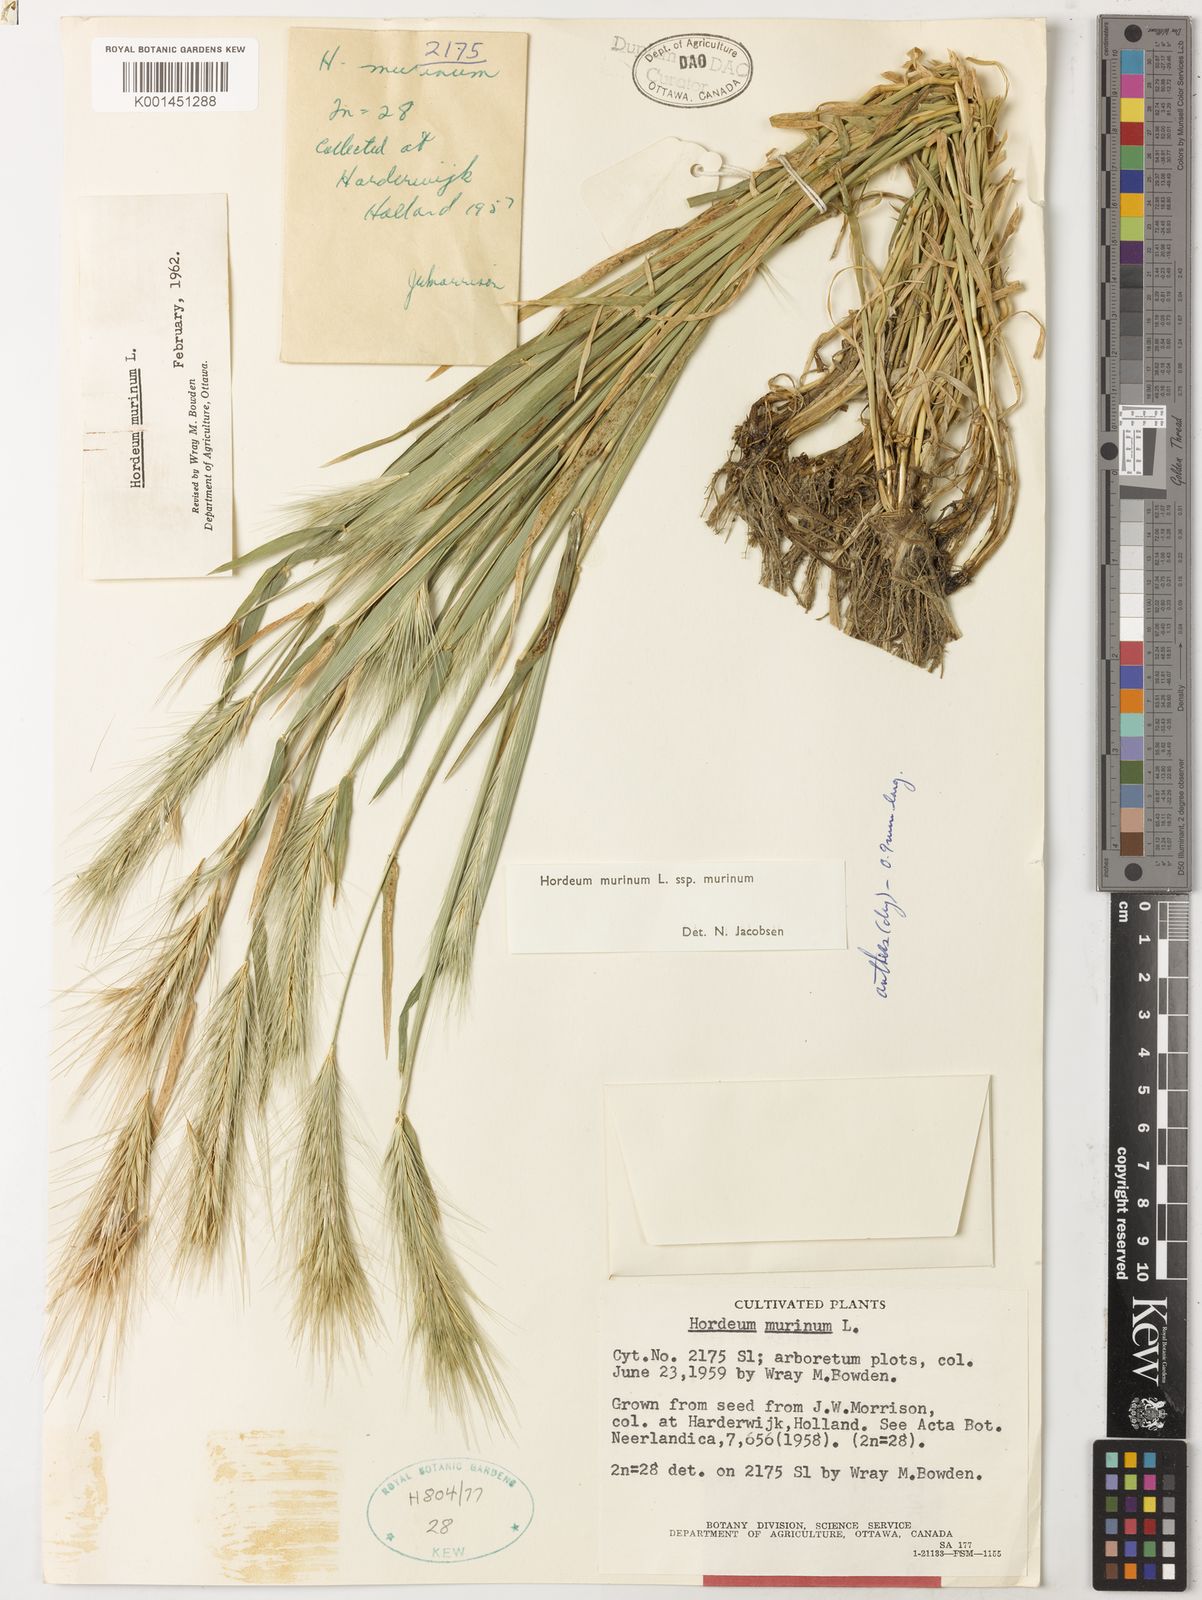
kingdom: Plantae
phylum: Tracheophyta
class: Liliopsida
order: Poales
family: Poaceae
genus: Hordeum
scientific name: Hordeum murinum
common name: Wall barley
